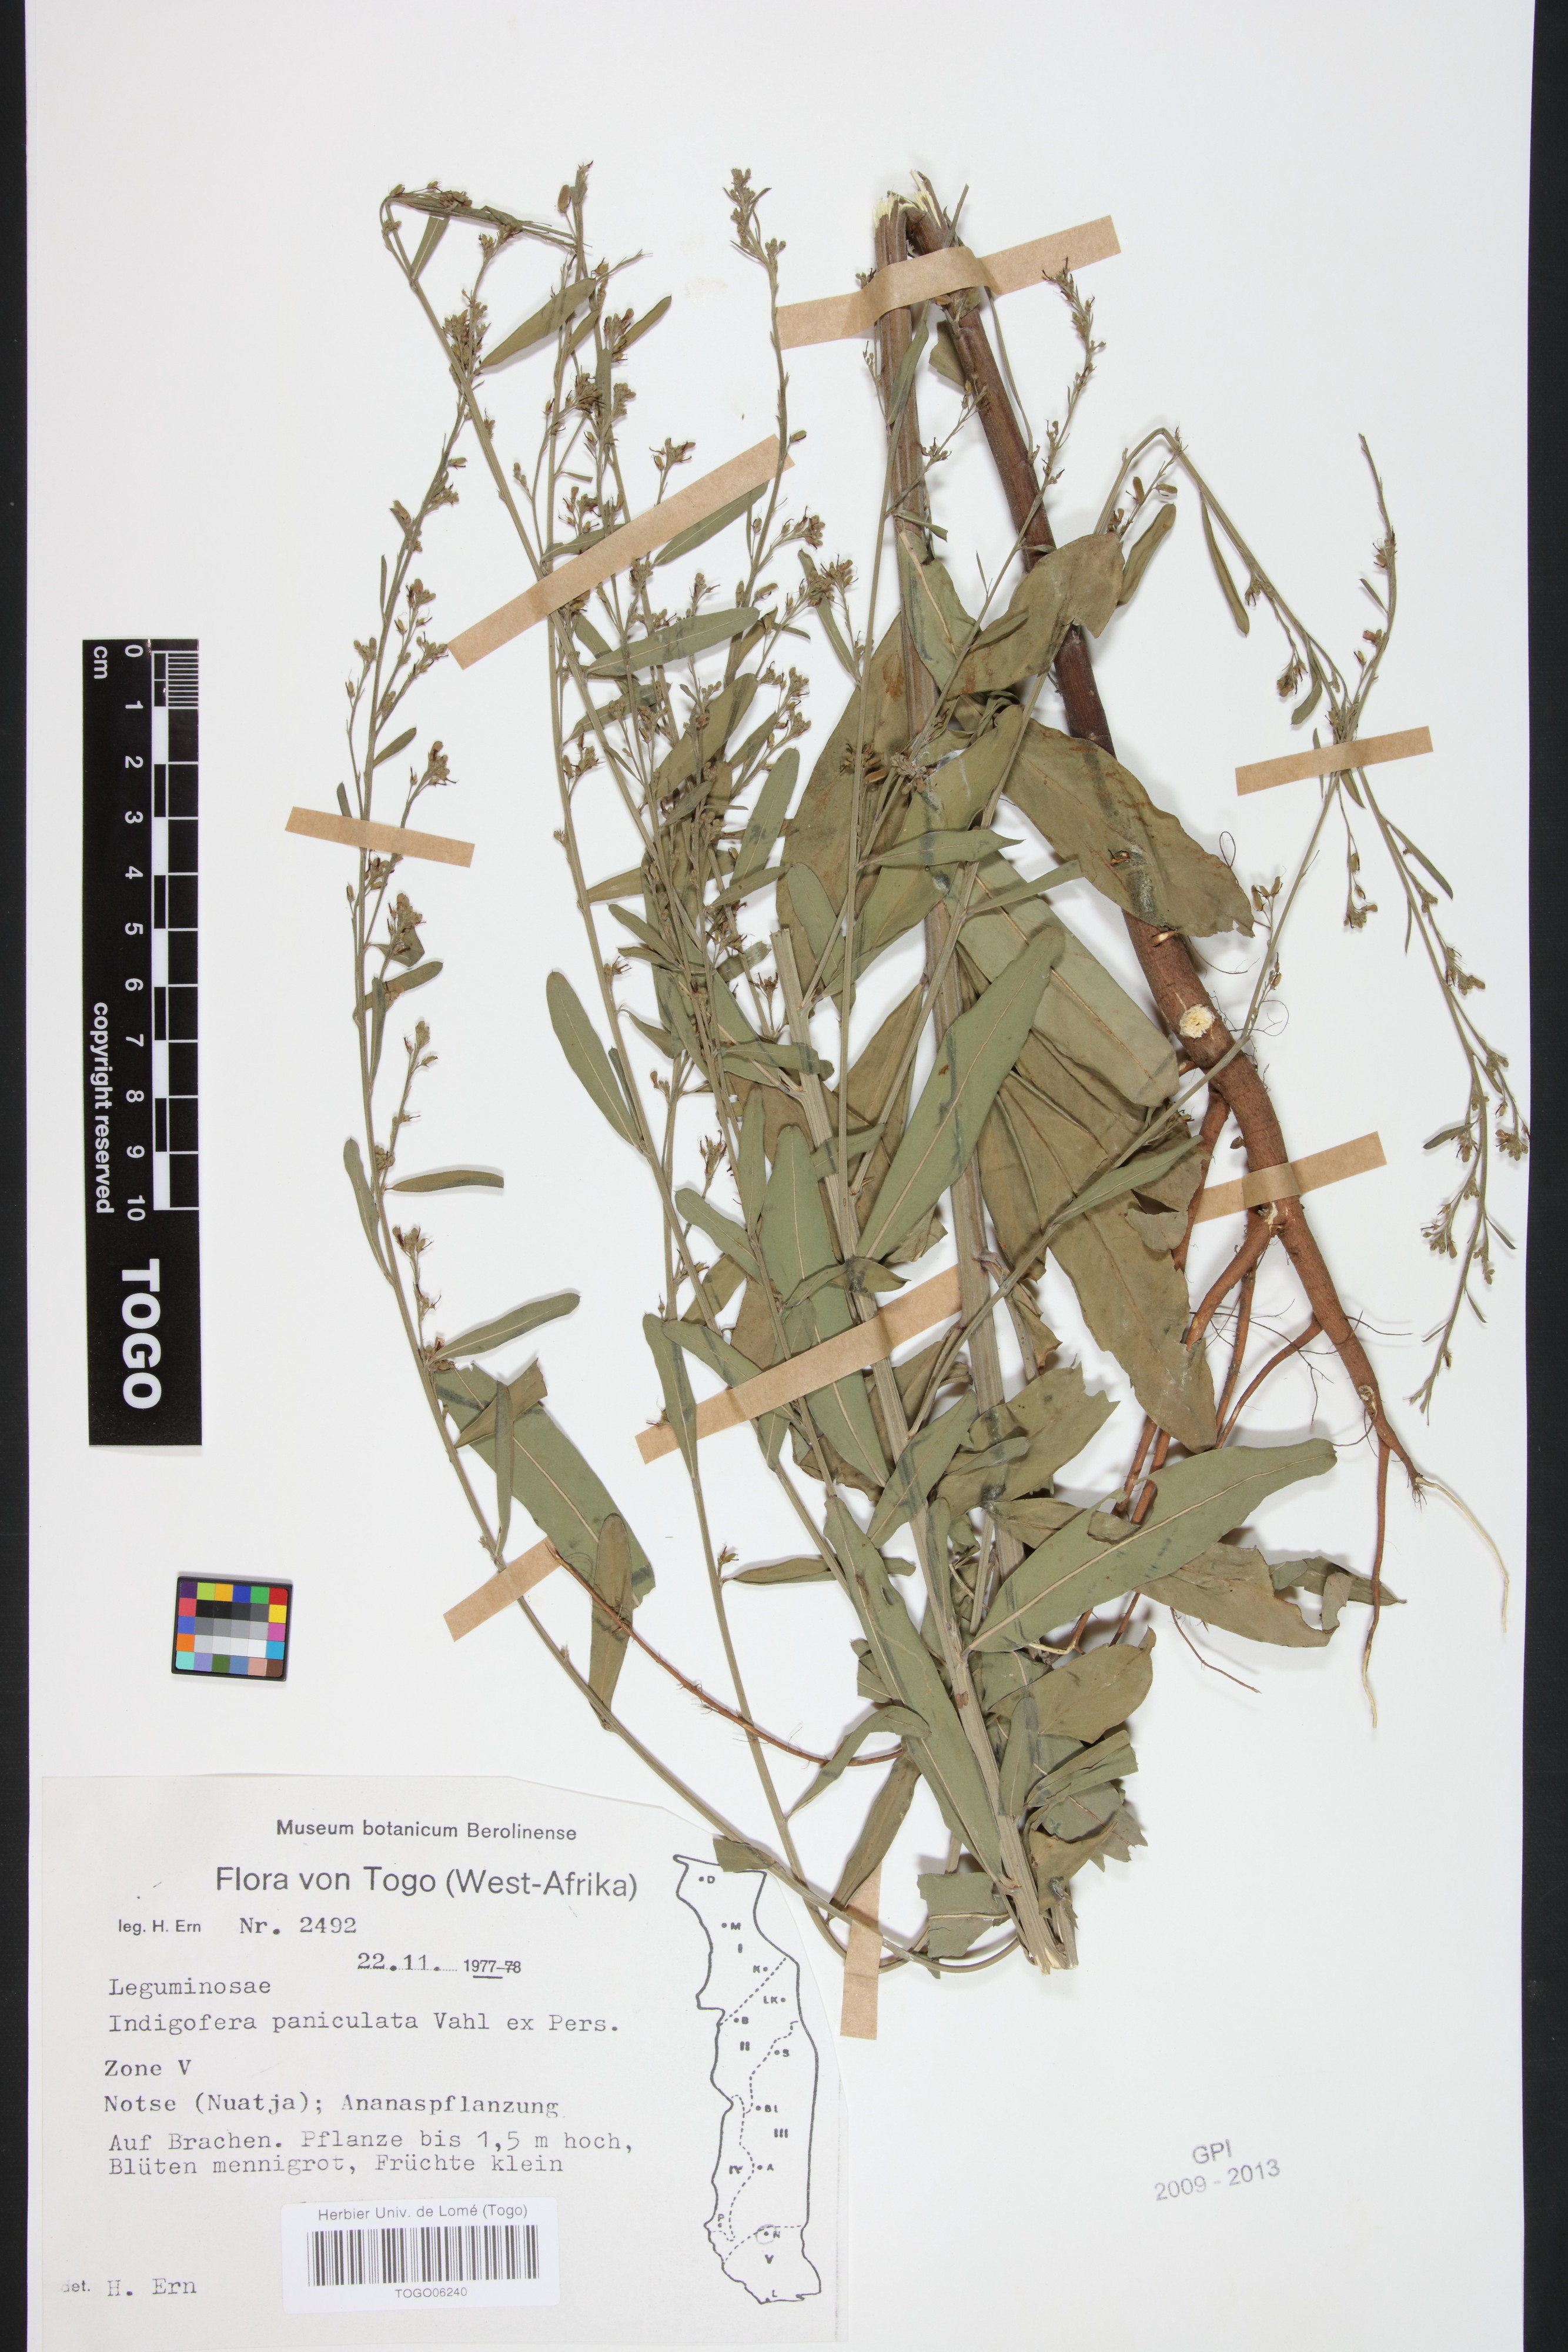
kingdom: Plantae
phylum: Tracheophyta
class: Magnoliopsida
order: Fabales
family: Fabaceae
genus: Indigofera
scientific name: Indigofera paniculata
